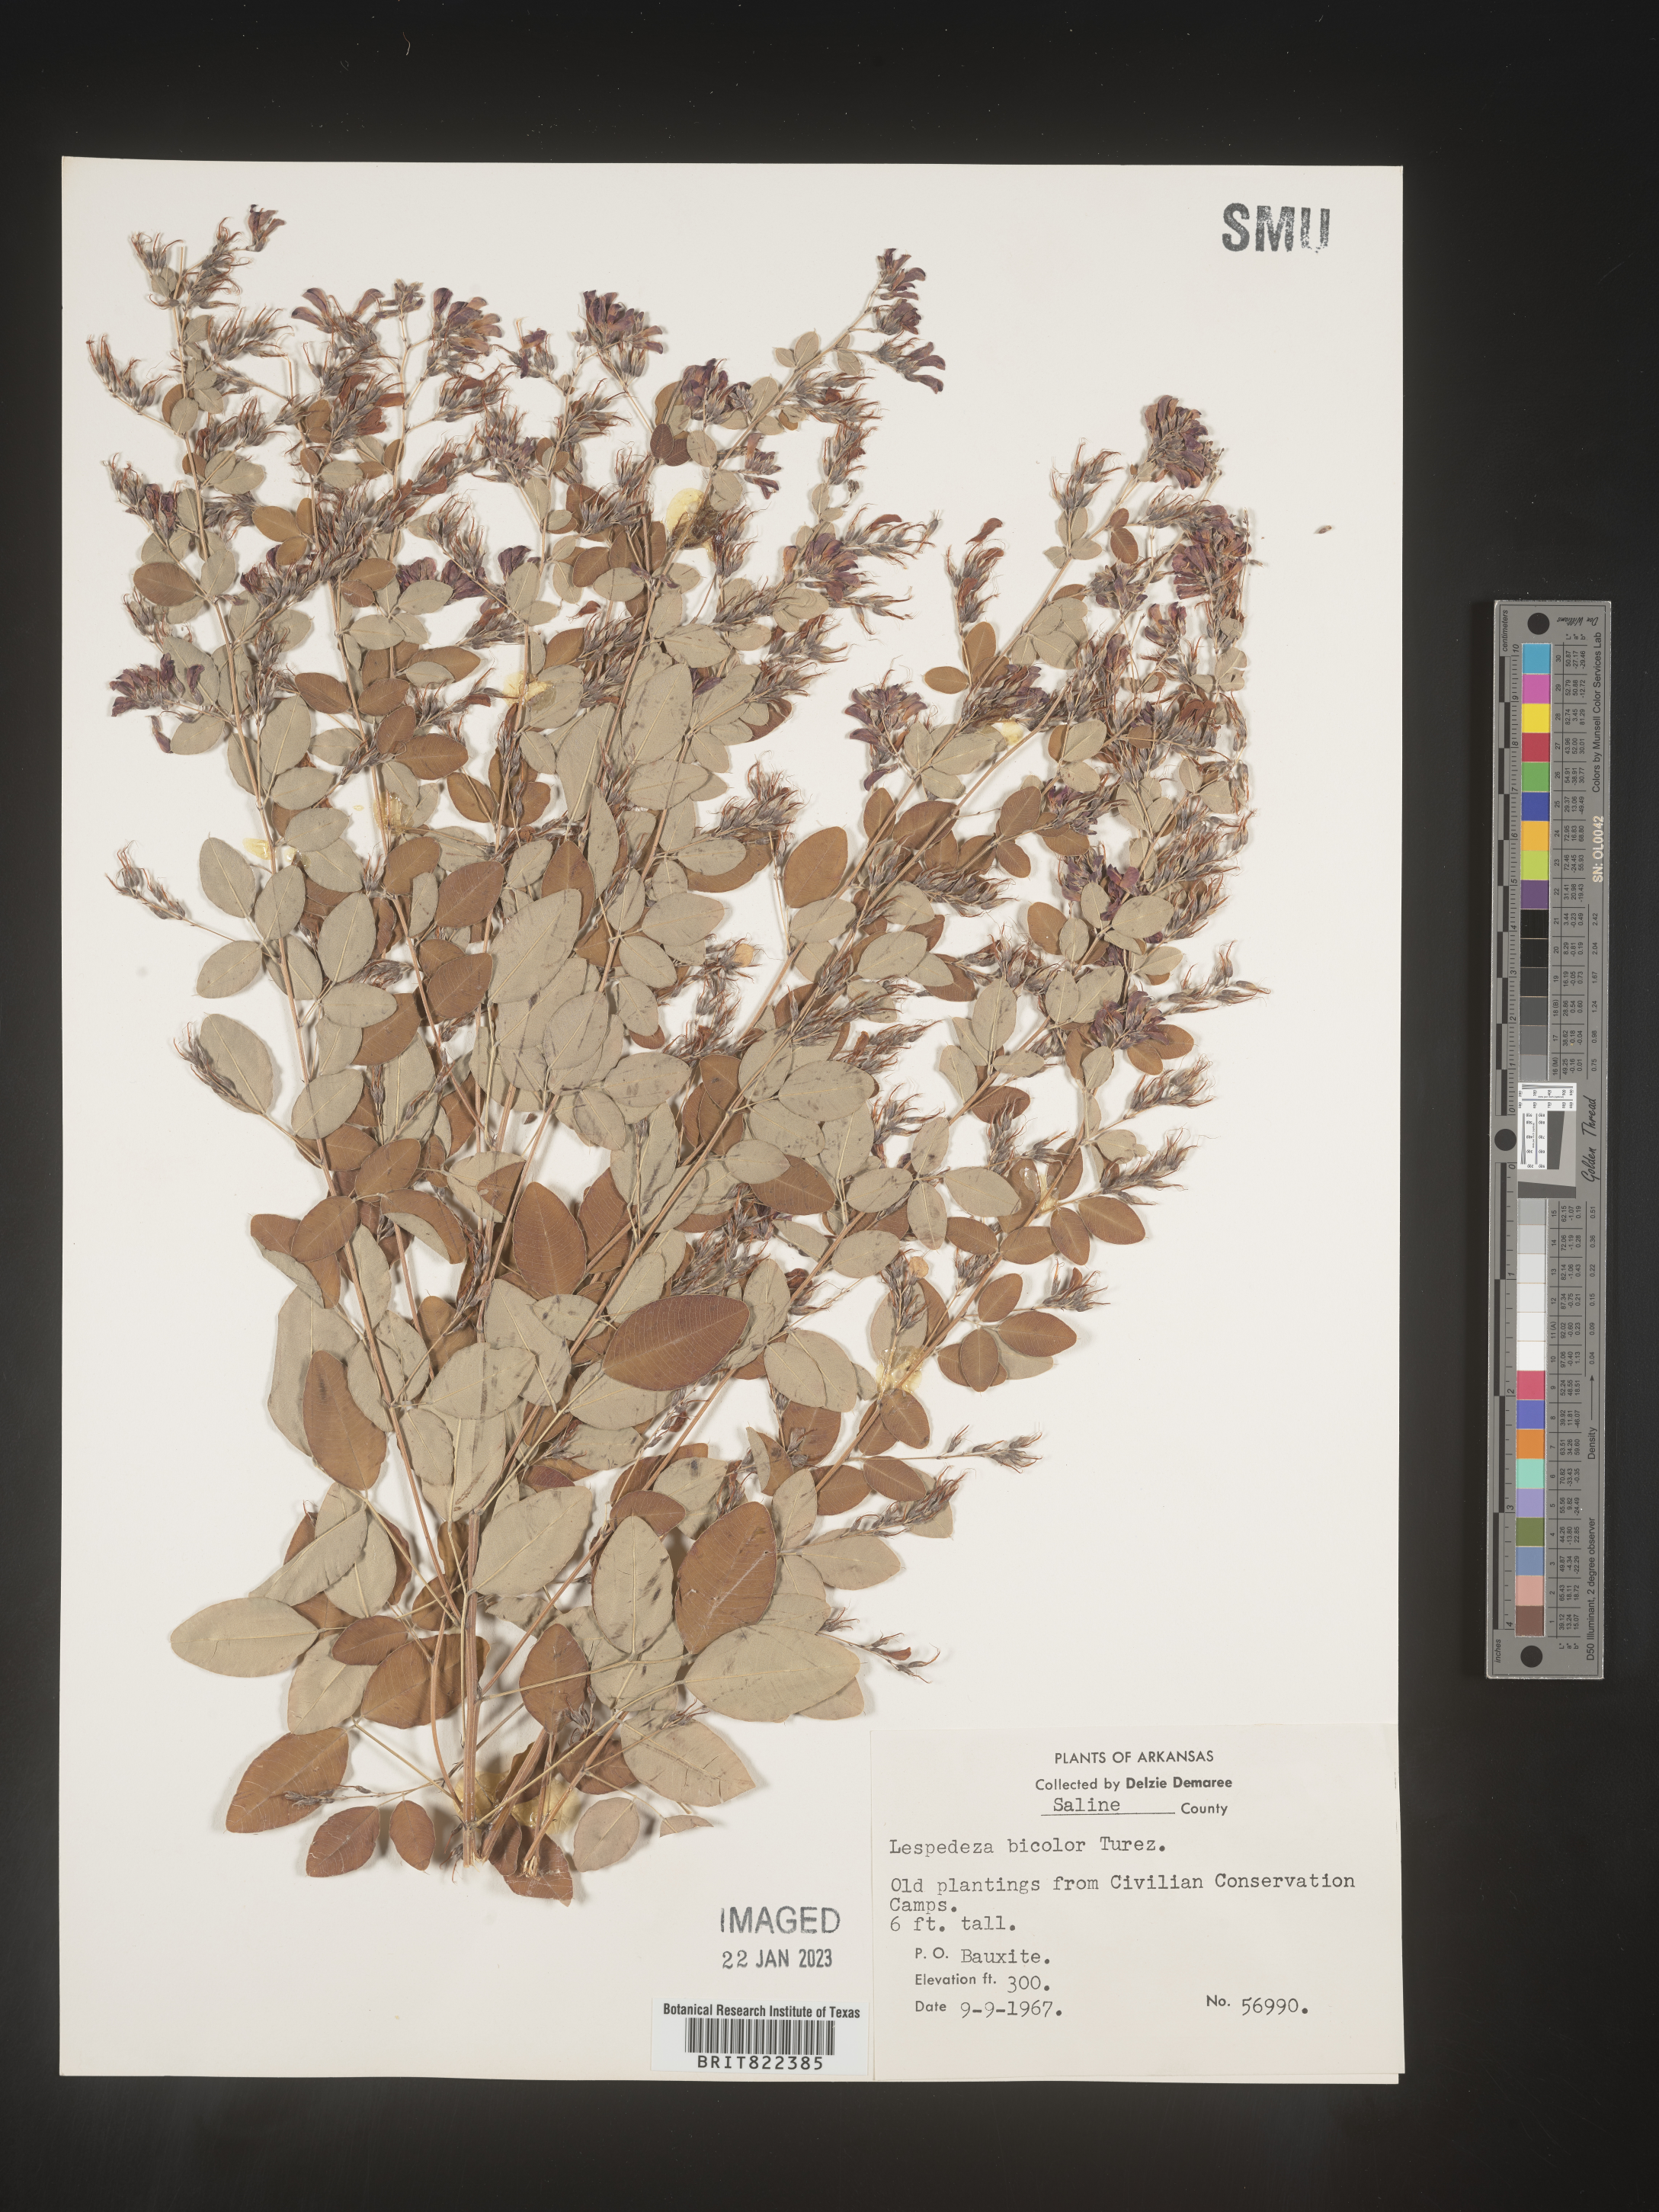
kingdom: Plantae
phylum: Tracheophyta
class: Magnoliopsida
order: Fabales
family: Fabaceae
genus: Lespedeza
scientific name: Lespedeza
